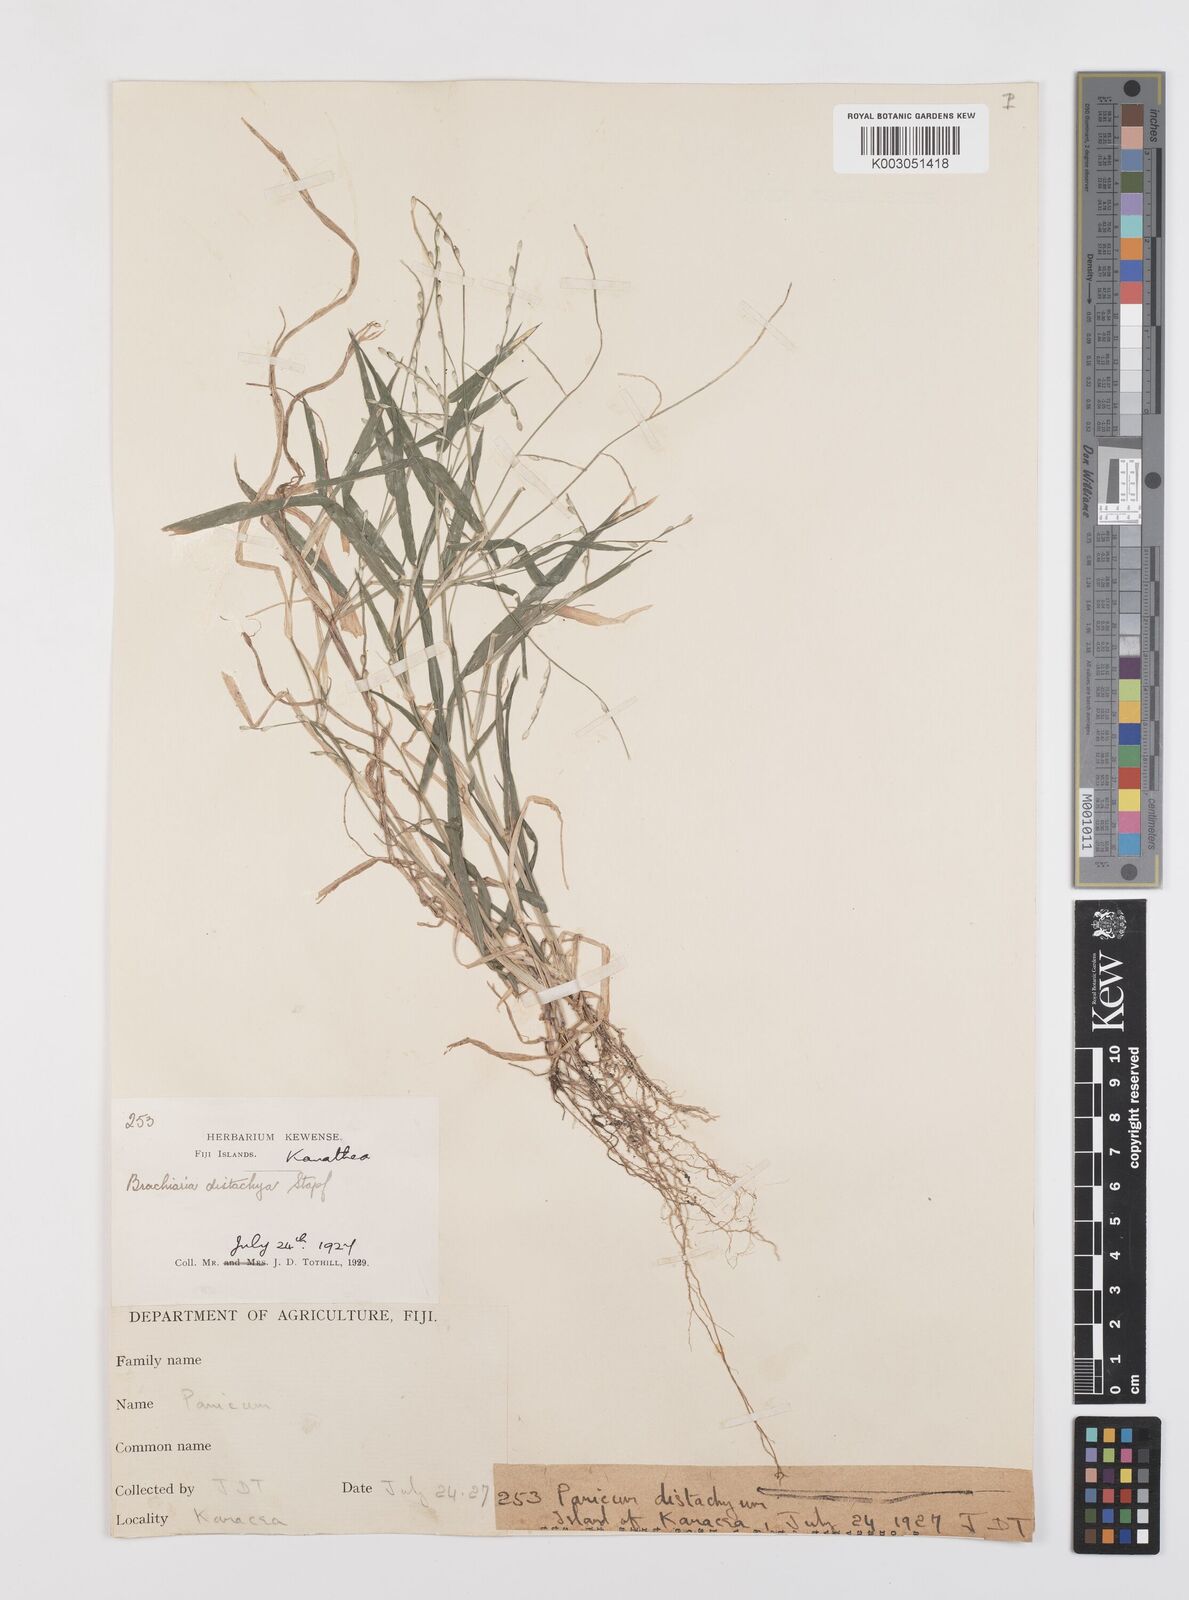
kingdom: Plantae
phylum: Tracheophyta
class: Liliopsida
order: Poales
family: Poaceae
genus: Urochloa
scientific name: Urochloa subquadripara
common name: Armgrass millet
